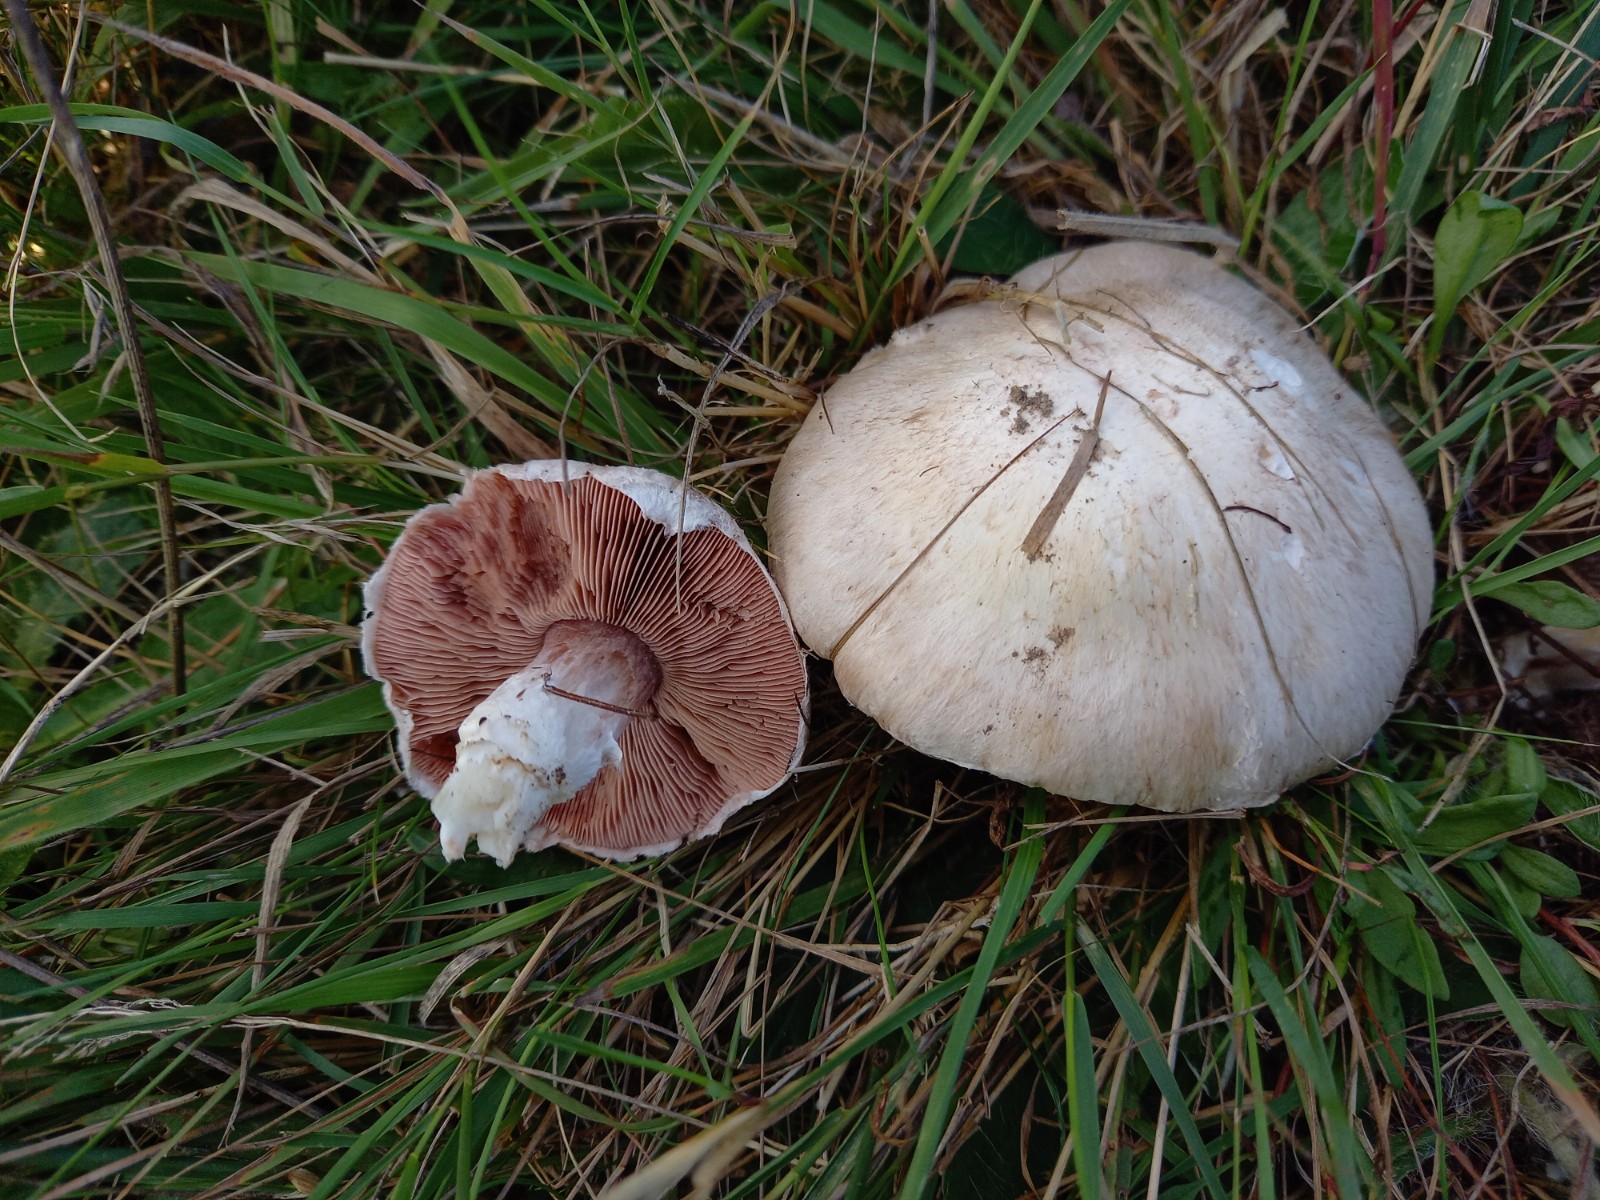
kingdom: Fungi
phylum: Basidiomycota
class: Agaricomycetes
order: Agaricales
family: Agaricaceae
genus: Agaricus
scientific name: Agaricus campestris
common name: mark-champignon
